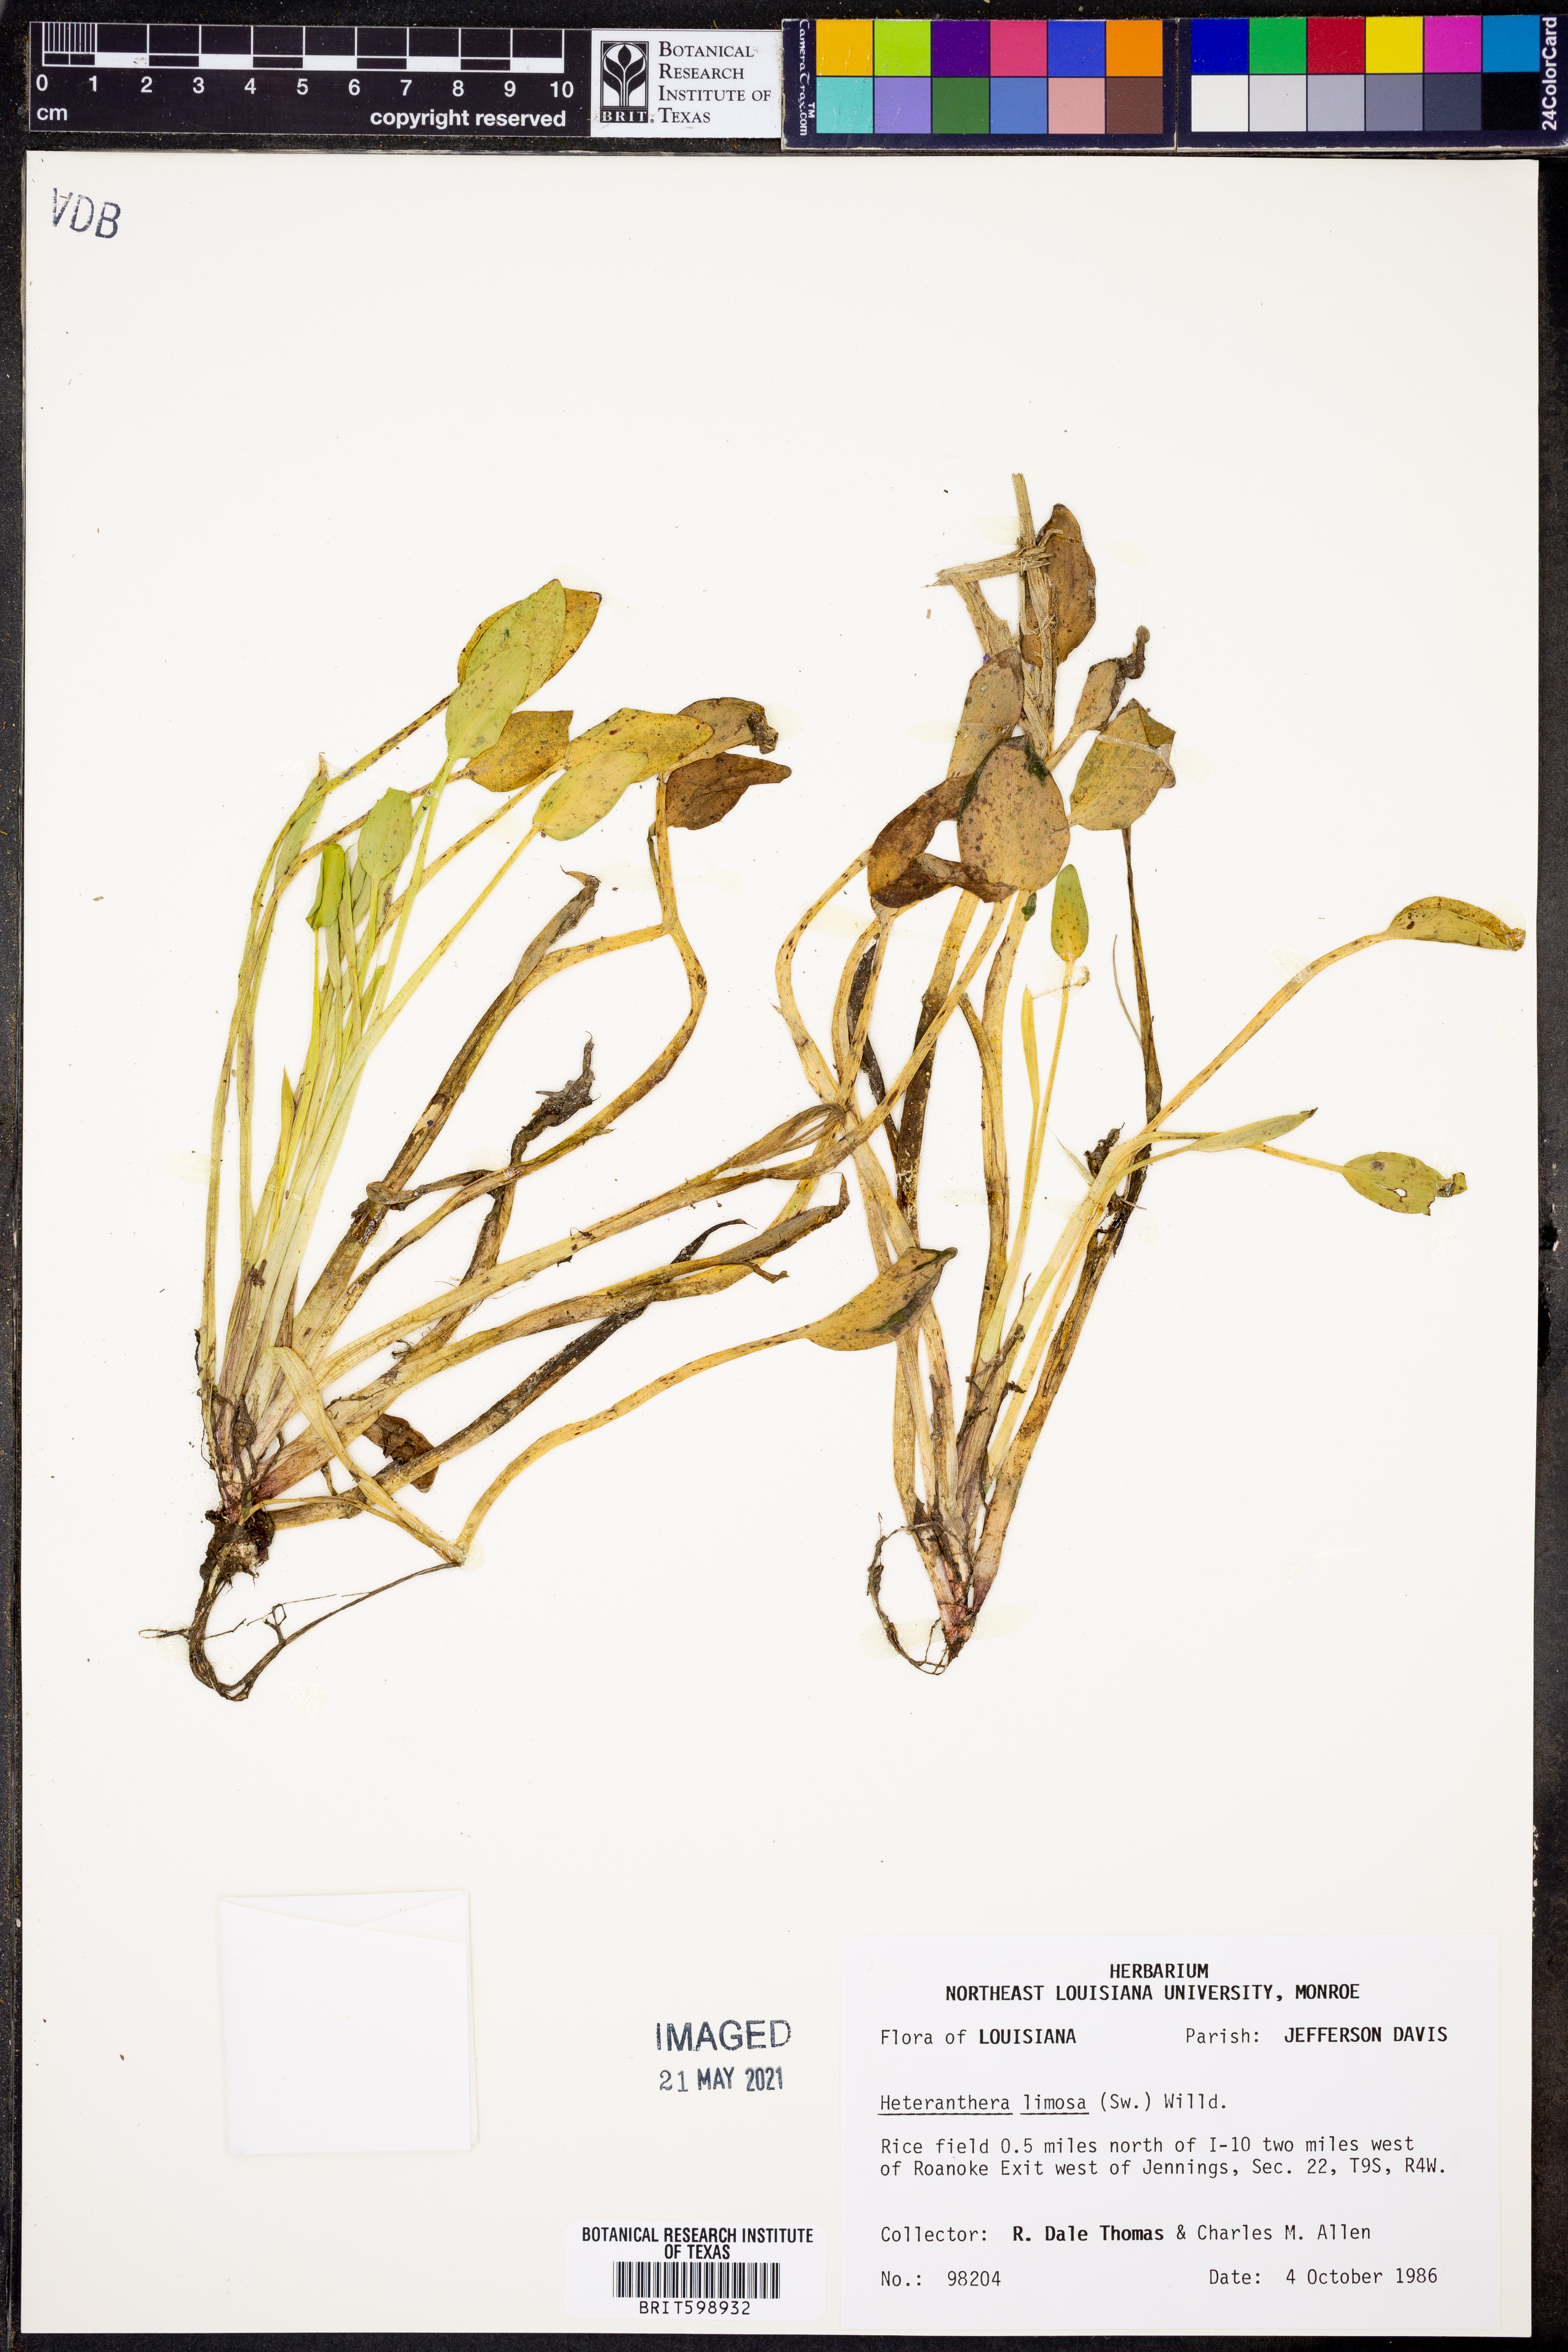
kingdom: Plantae
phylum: Tracheophyta
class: Liliopsida
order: Commelinales
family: Pontederiaceae
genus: Heteranthera
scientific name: Heteranthera limosa
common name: Blue mud-plantain
